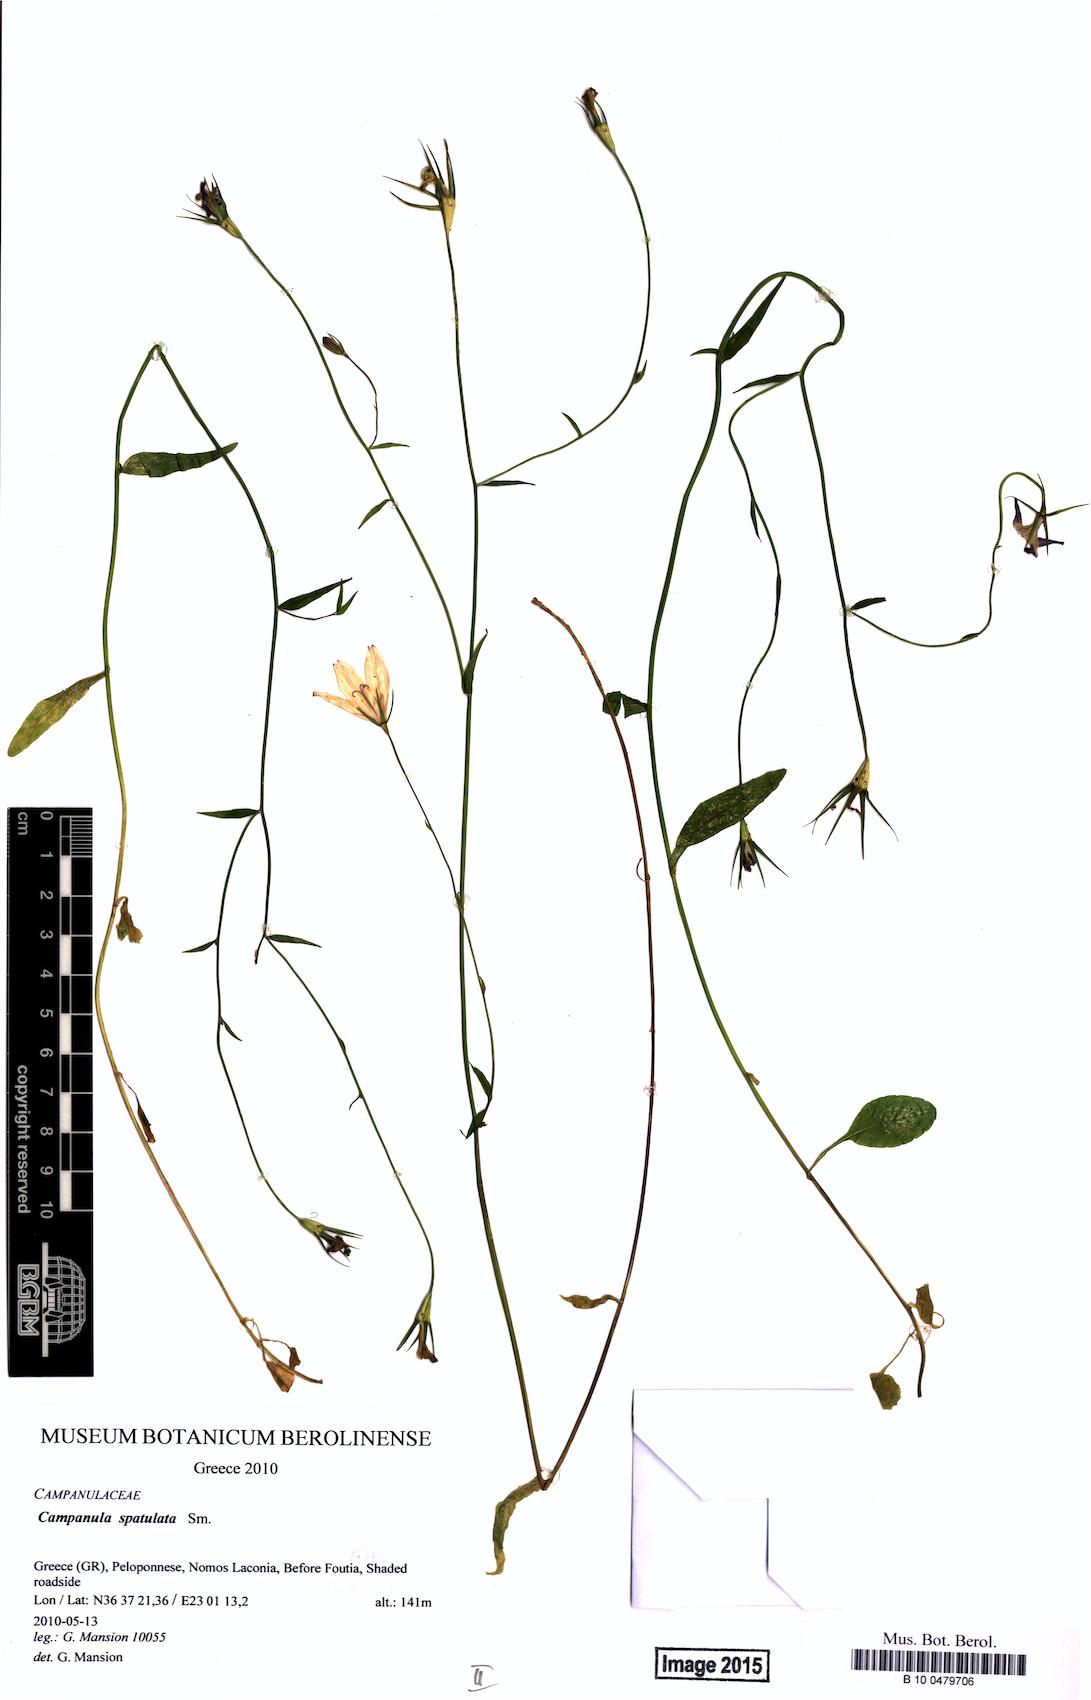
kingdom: Plantae
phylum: Tracheophyta
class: Magnoliopsida
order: Asterales
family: Campanulaceae
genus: Campanula
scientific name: Campanula spatulata
